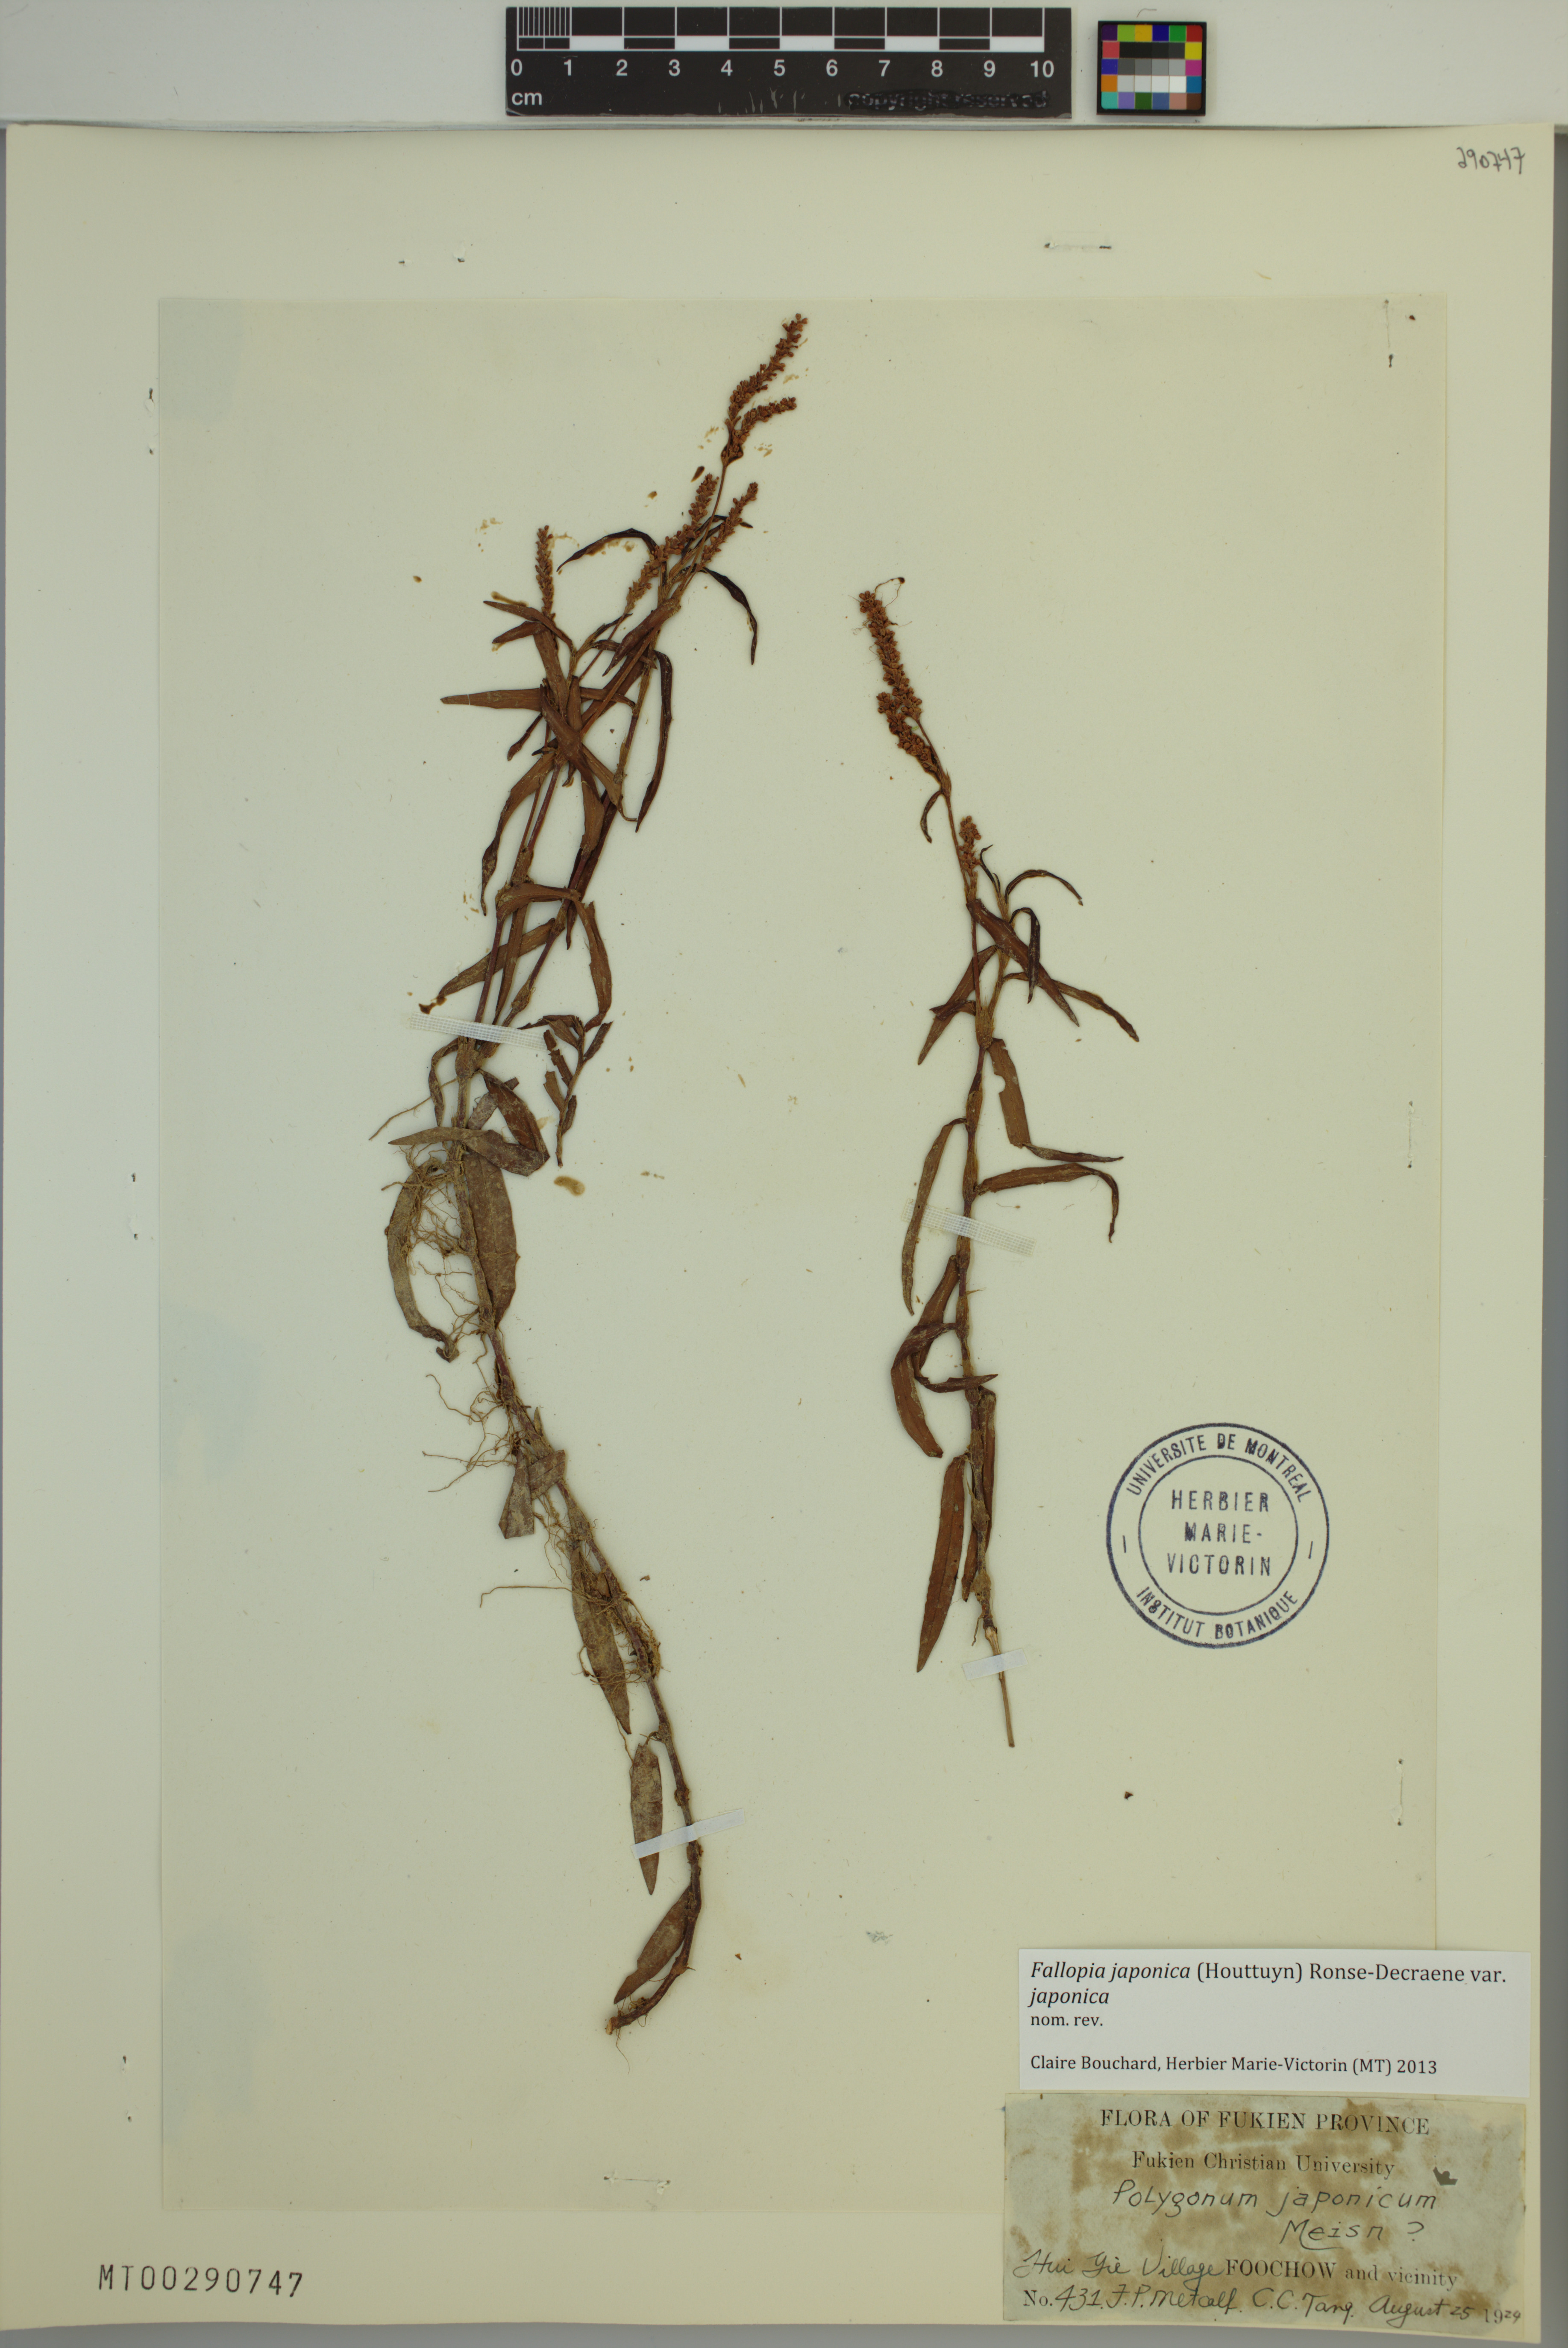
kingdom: Plantae
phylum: Tracheophyta
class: Magnoliopsida
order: Caryophyllales
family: Polygonaceae
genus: Reynoutria
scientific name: Reynoutria japonica
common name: Japanese knotweed
